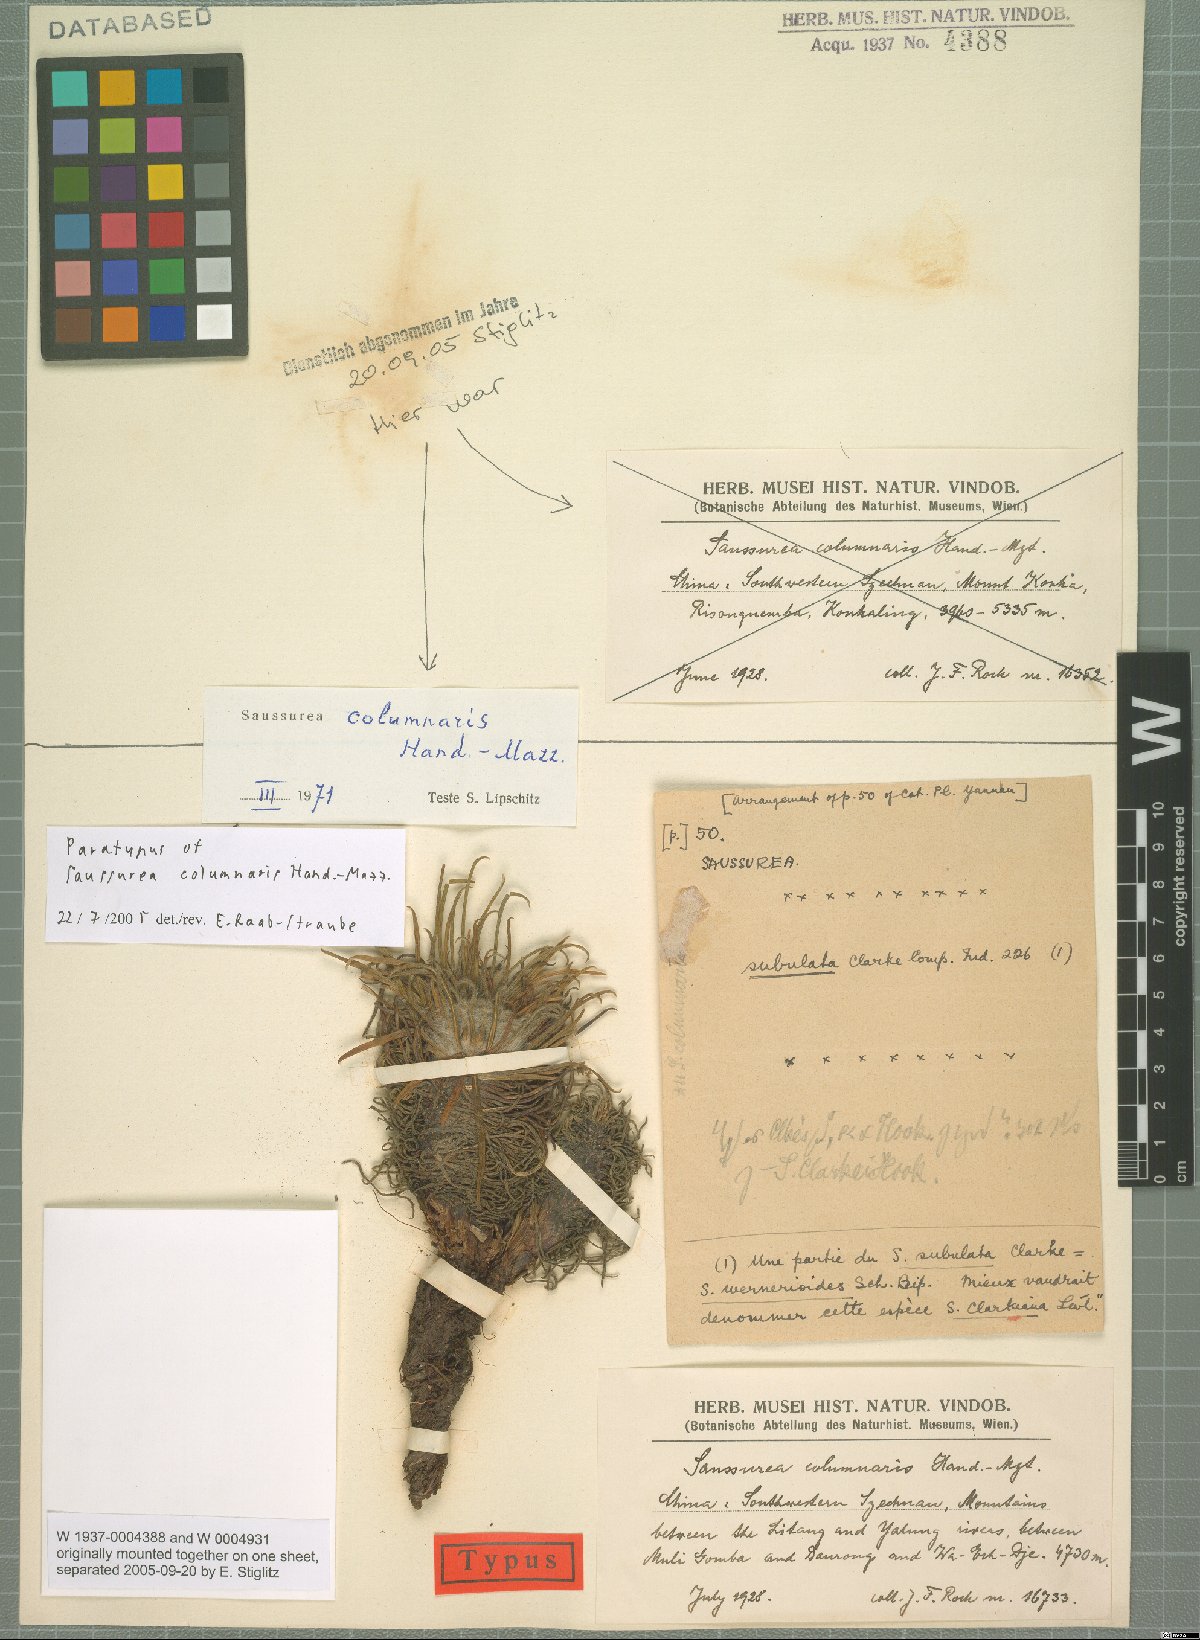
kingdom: Plantae
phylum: Tracheophyta
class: Magnoliopsida
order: Asterales
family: Asteraceae
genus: Saussurea
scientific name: Saussurea columnaris
